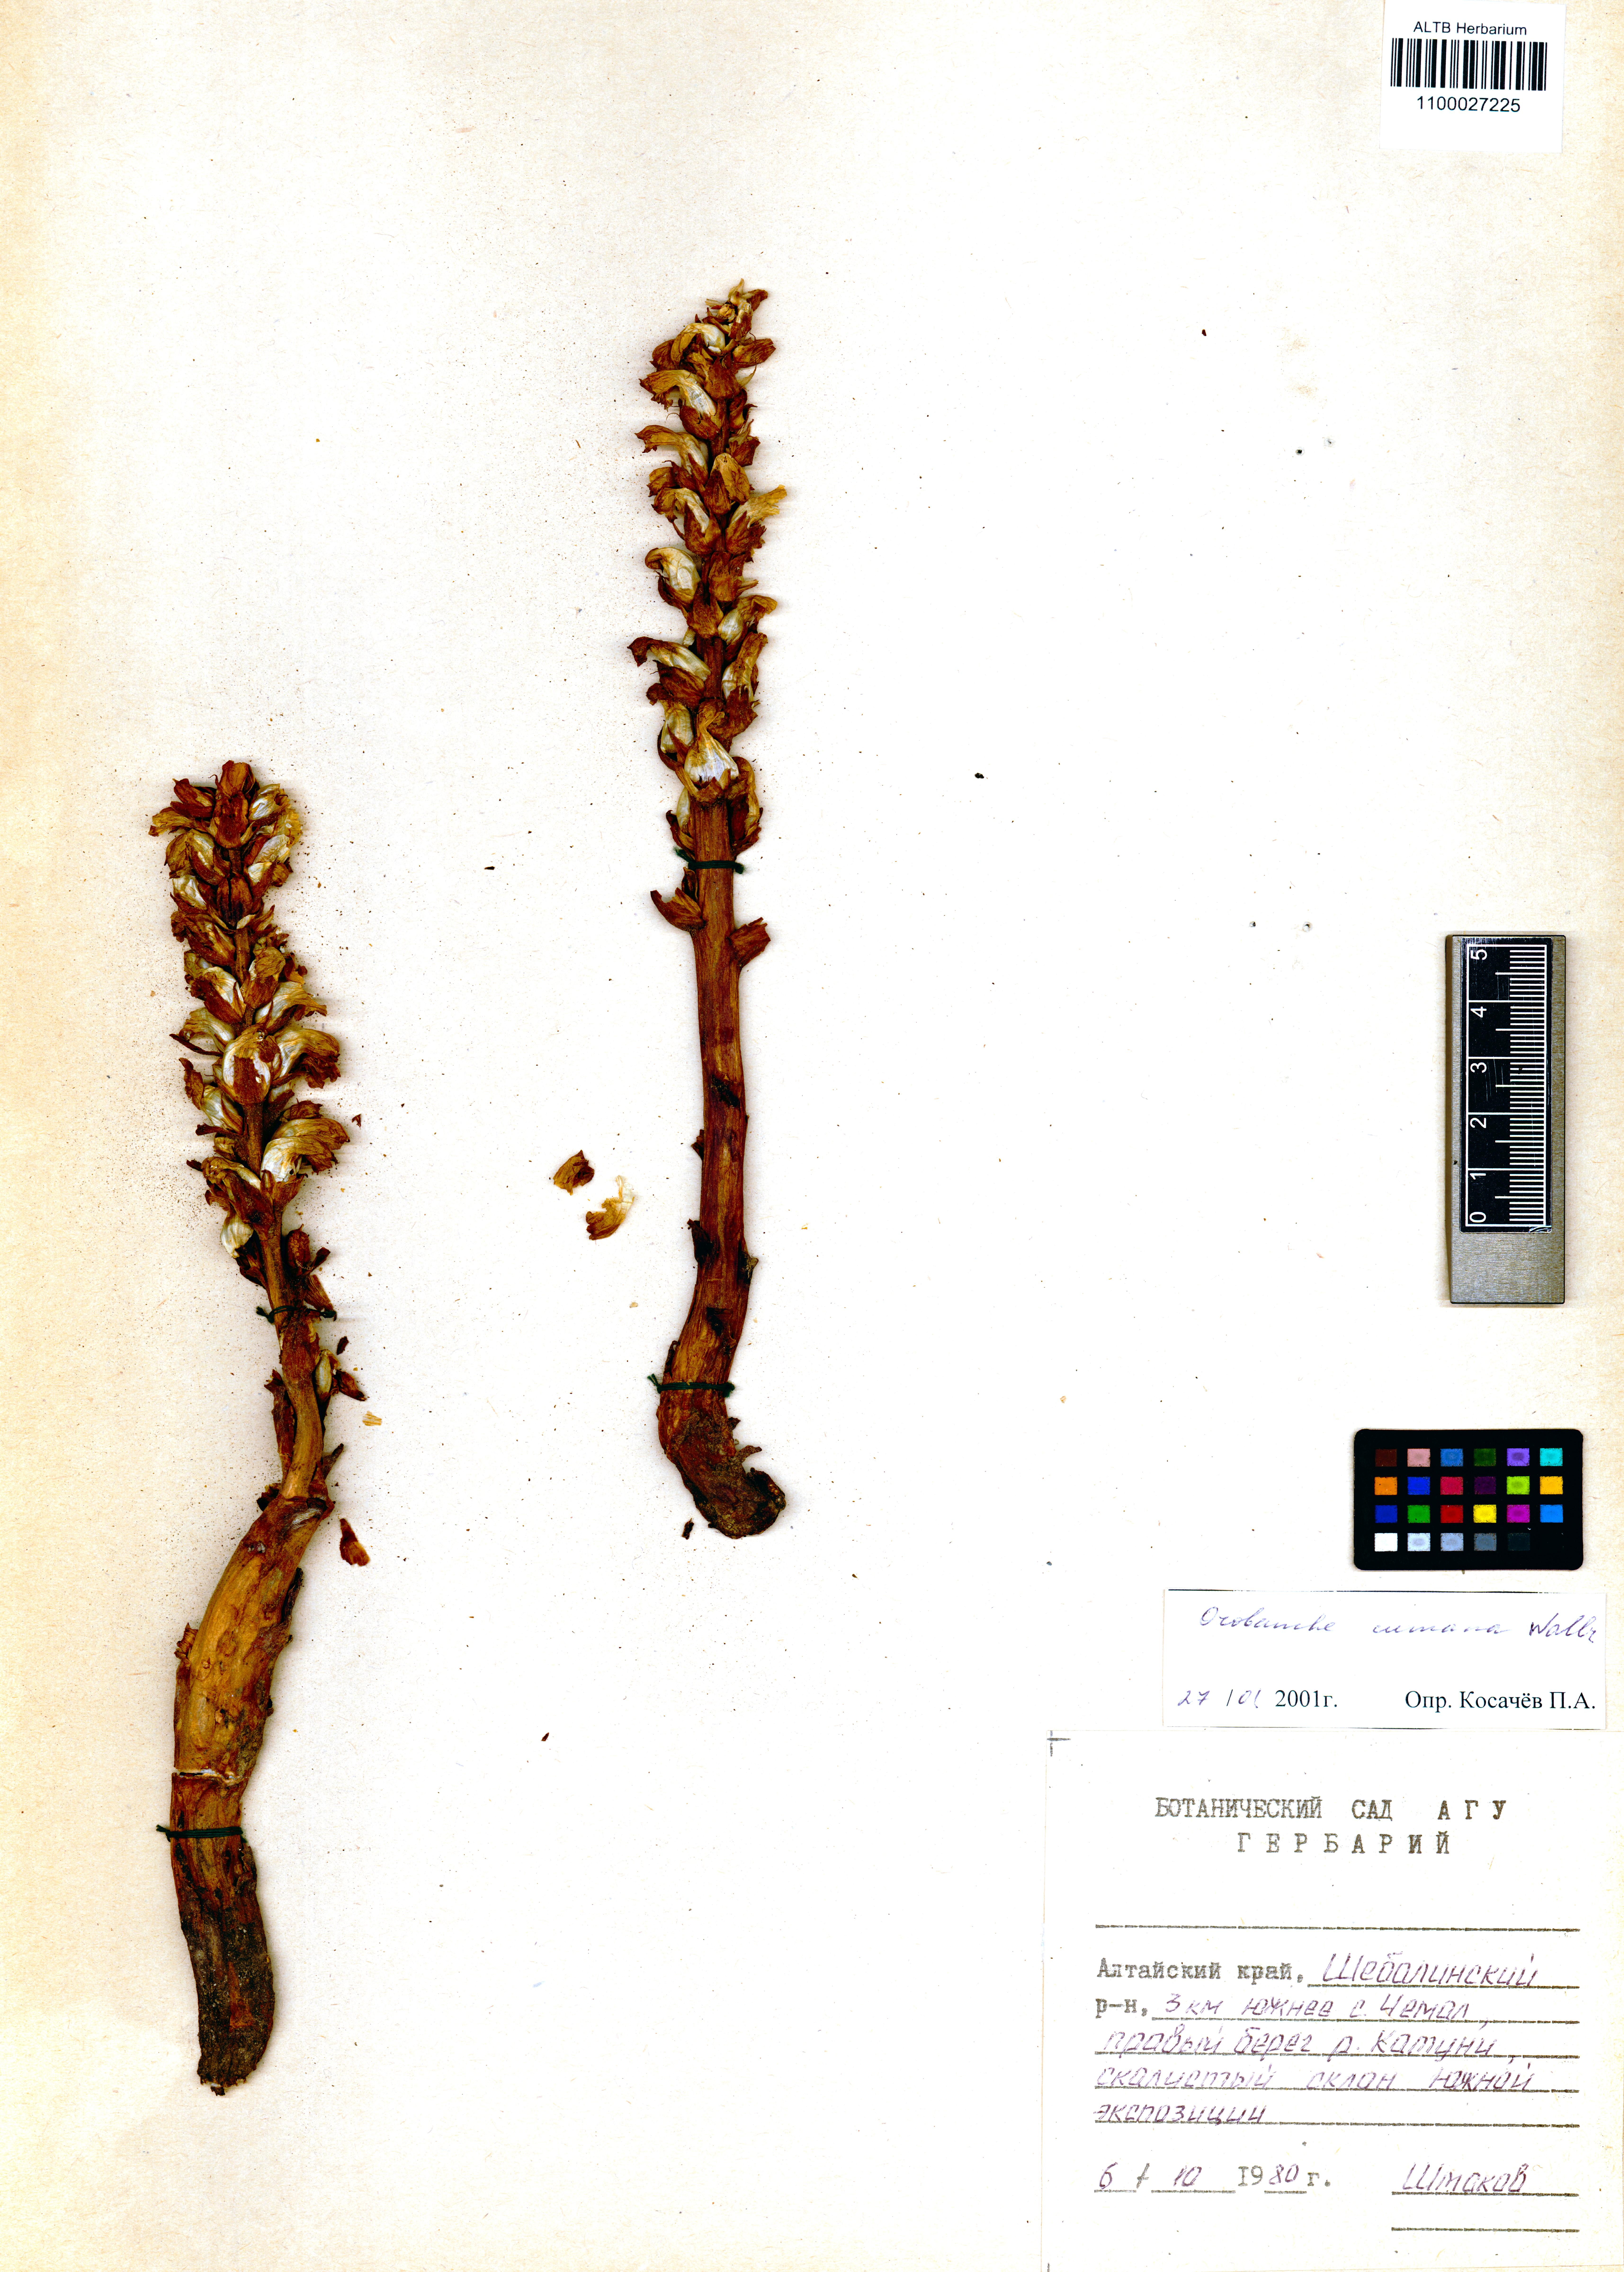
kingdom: Plantae
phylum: Tracheophyta
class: Magnoliopsida
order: Lamiales
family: Orobanchaceae
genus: Orobanche
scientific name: Orobanche cumana
